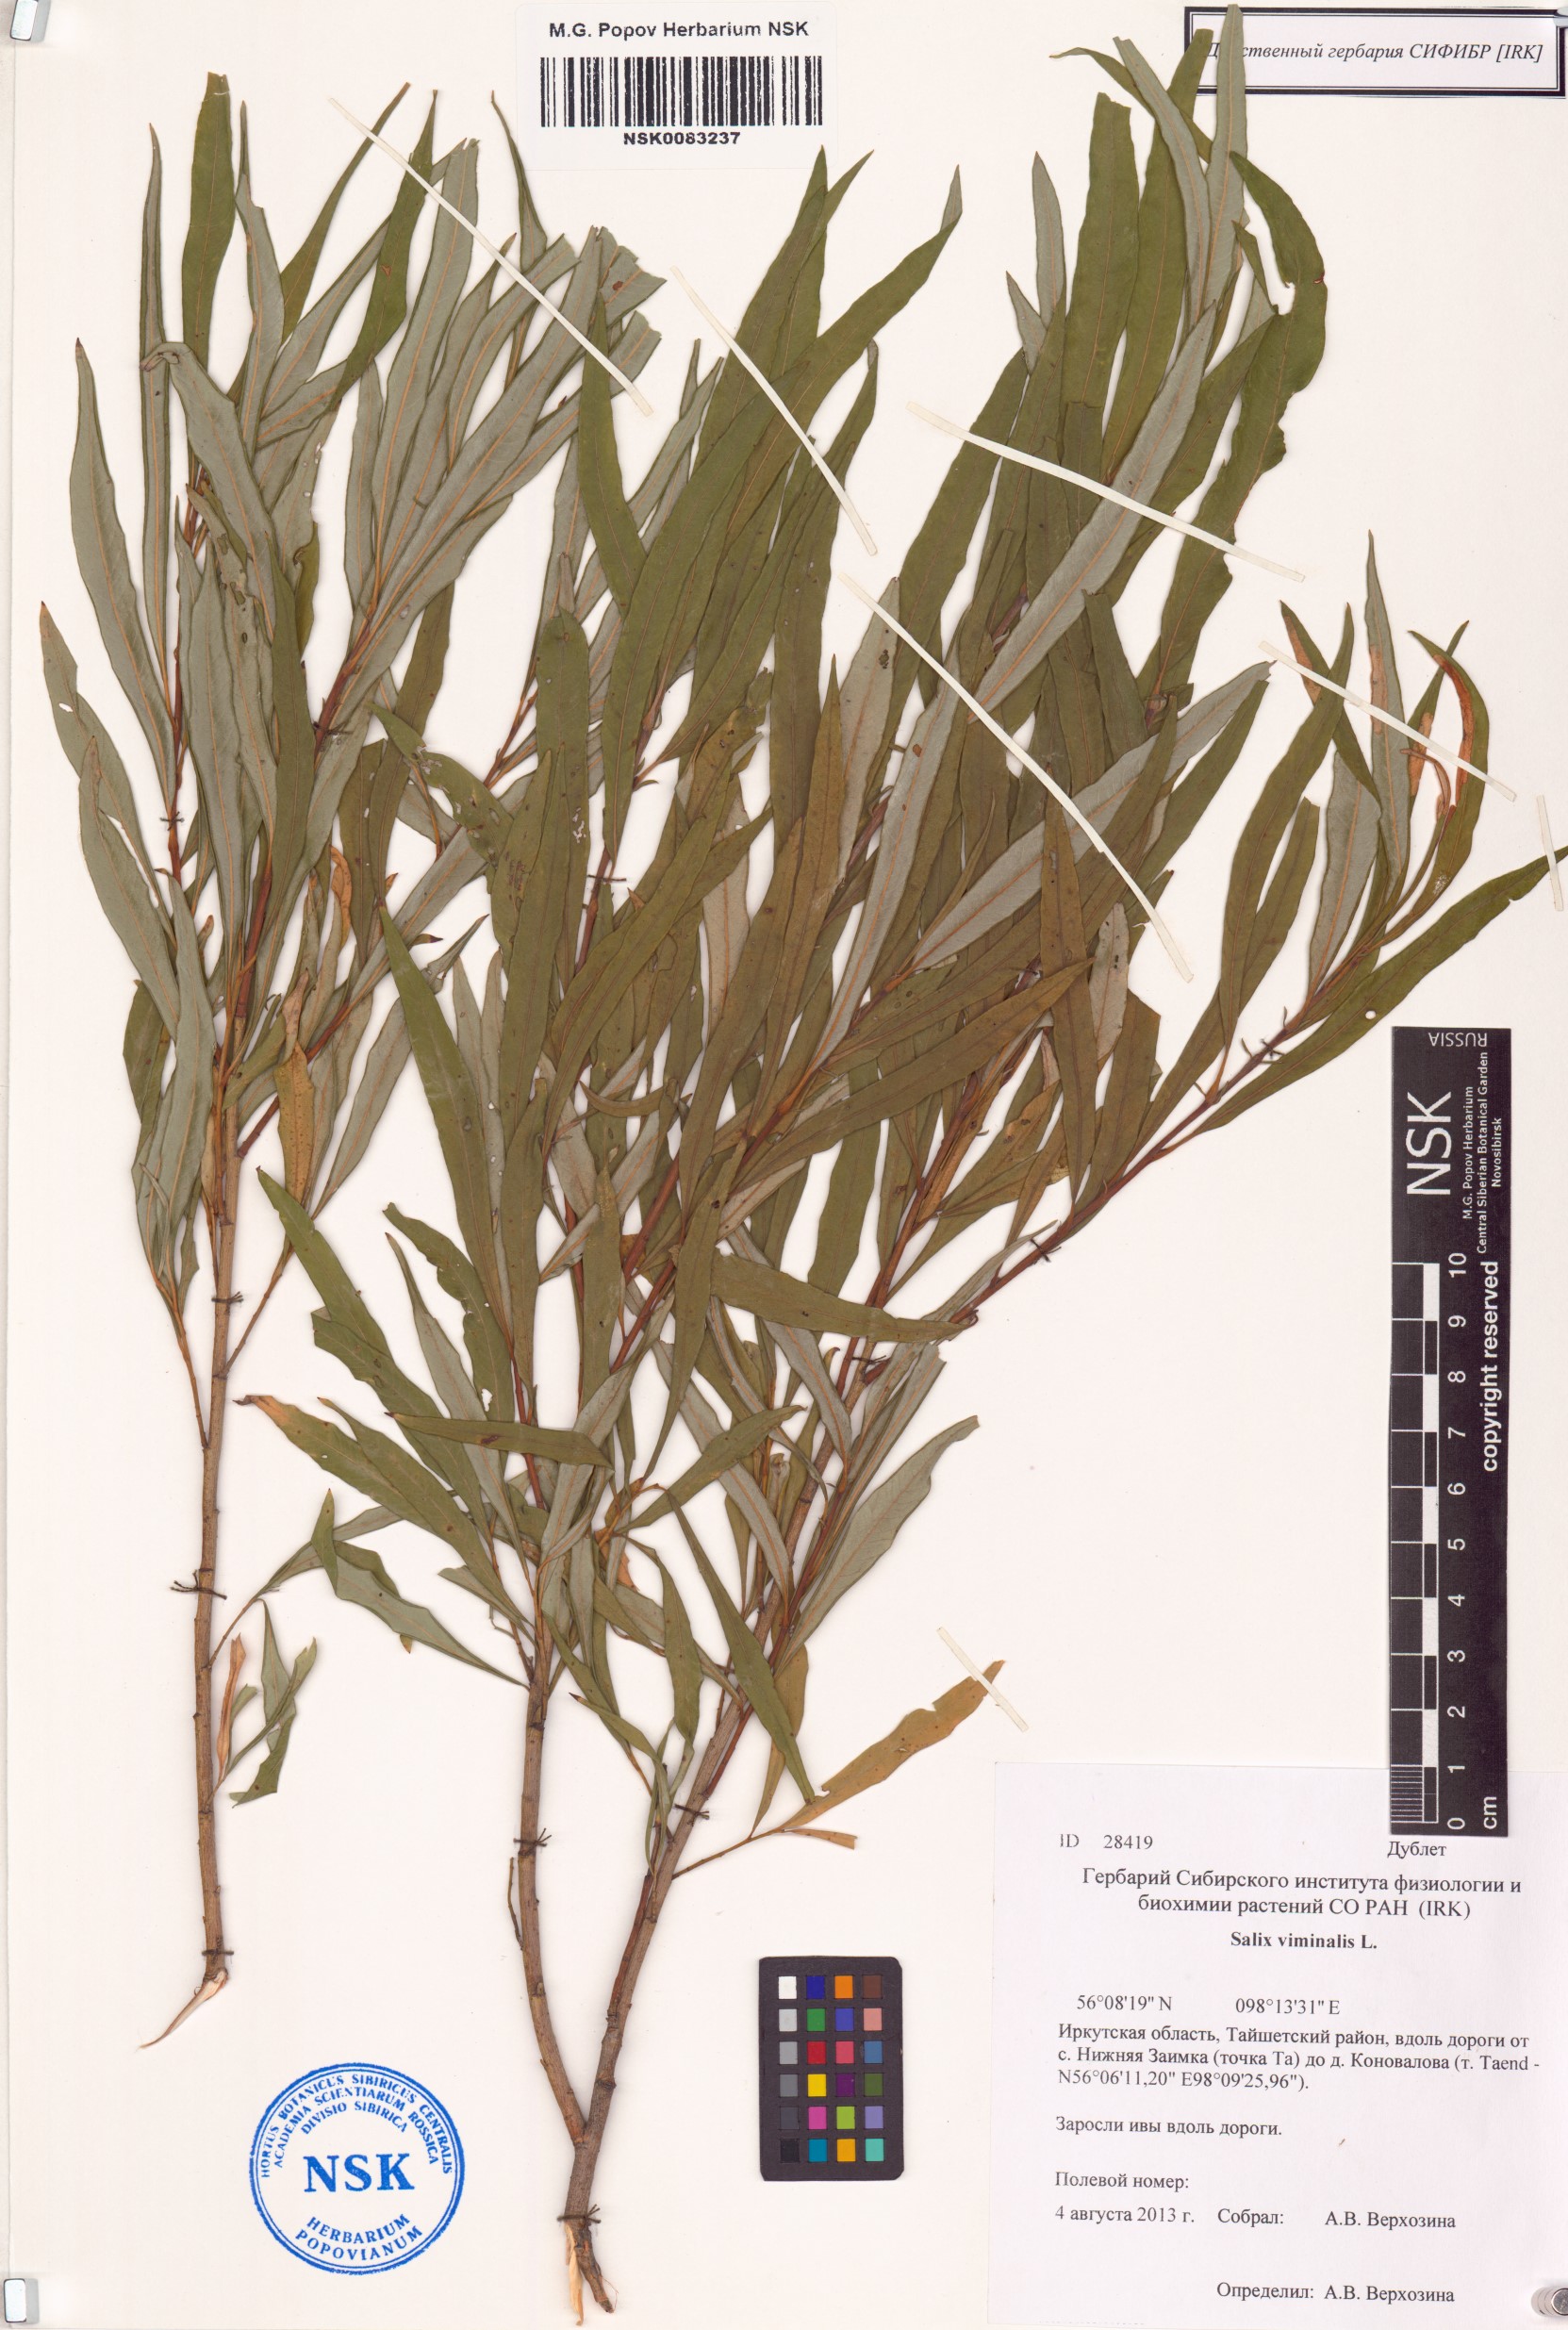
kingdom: Plantae
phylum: Tracheophyta
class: Magnoliopsida
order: Malpighiales
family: Salicaceae
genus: Salix
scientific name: Salix viminalis
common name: Osier
